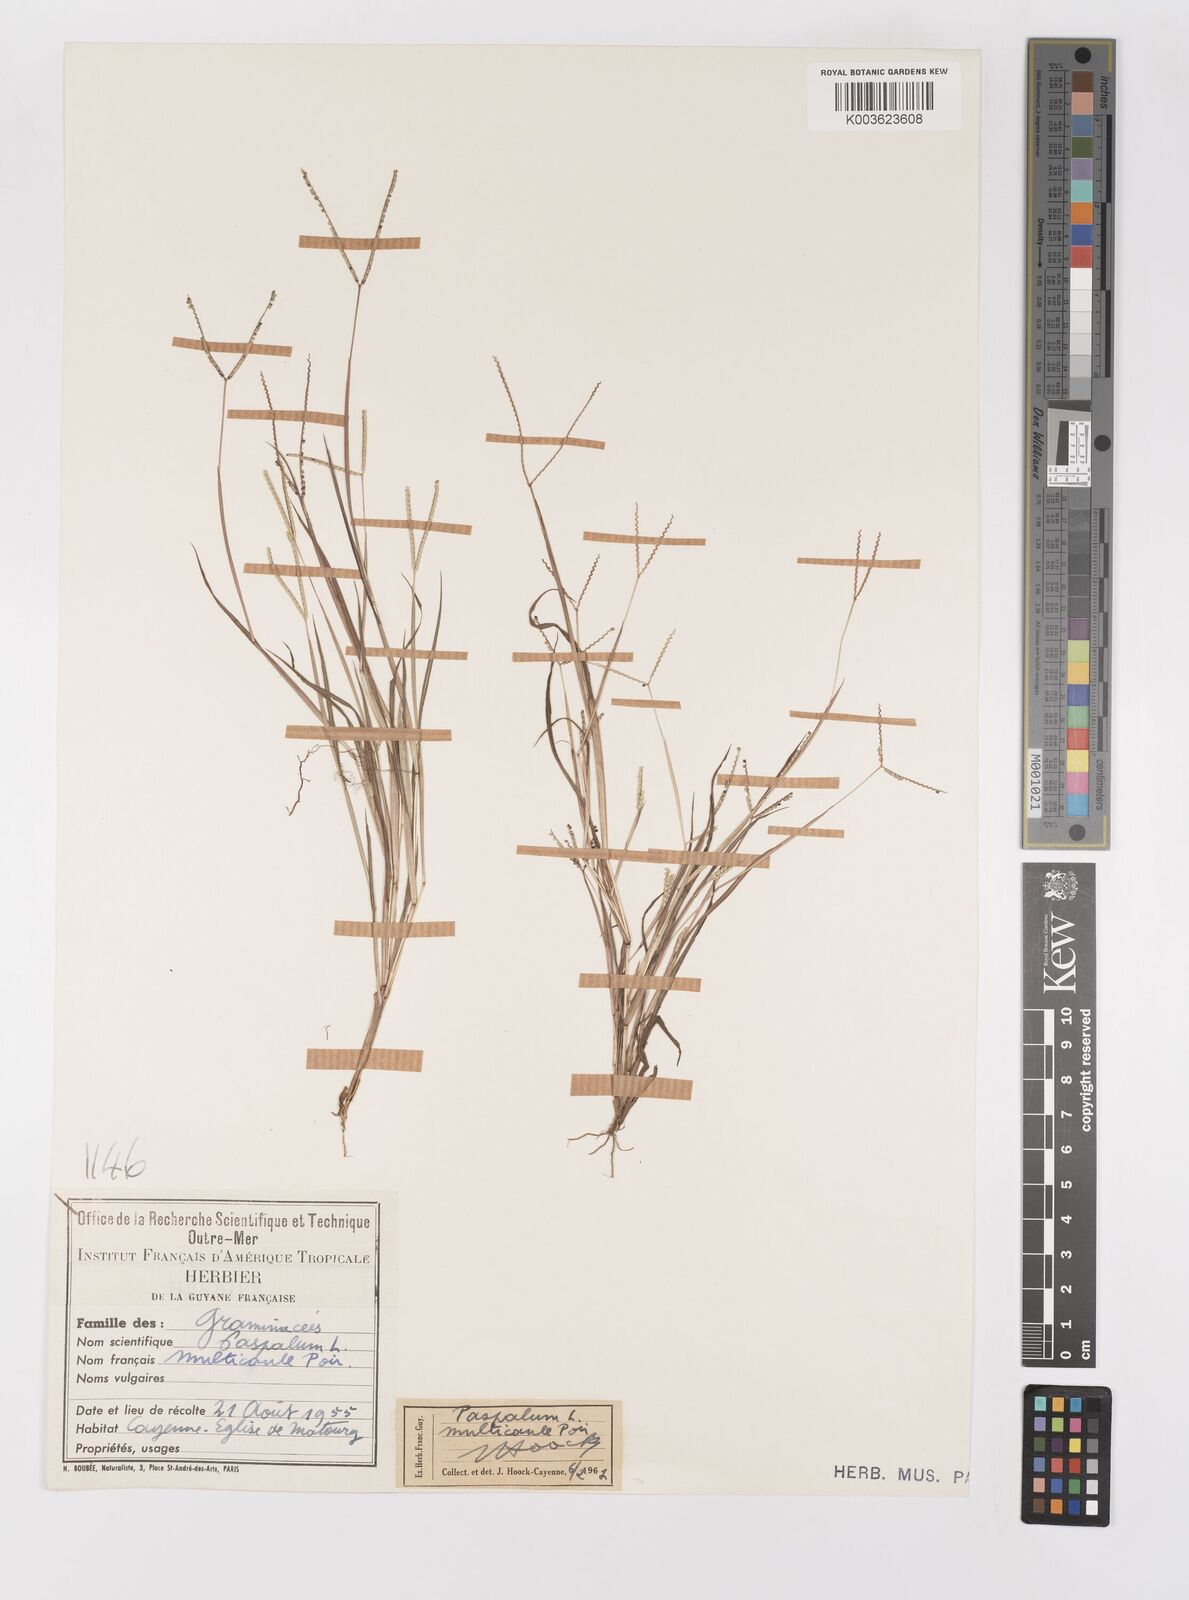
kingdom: Plantae
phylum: Tracheophyta
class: Liliopsida
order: Poales
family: Poaceae
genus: Paspalum
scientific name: Paspalum multicaule
